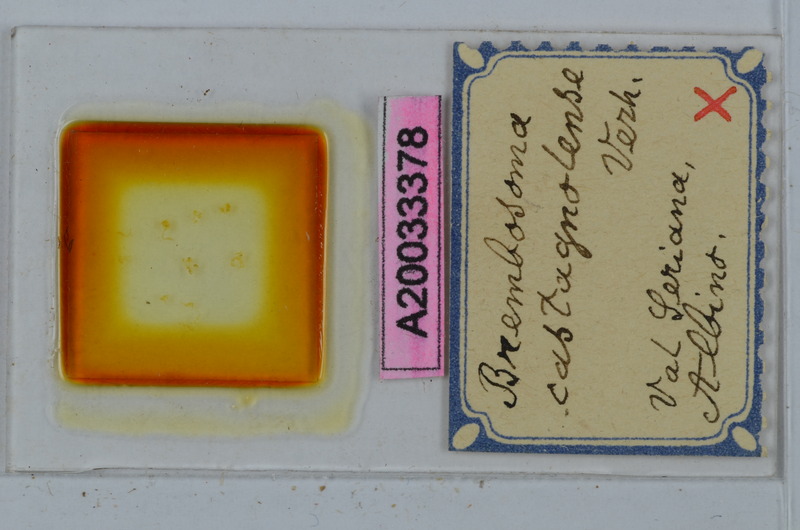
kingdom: Animalia
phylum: Arthropoda
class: Diplopoda
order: Polydesmida
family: Polydesmidae
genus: Brembosoma
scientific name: Brembosoma castagnolense
